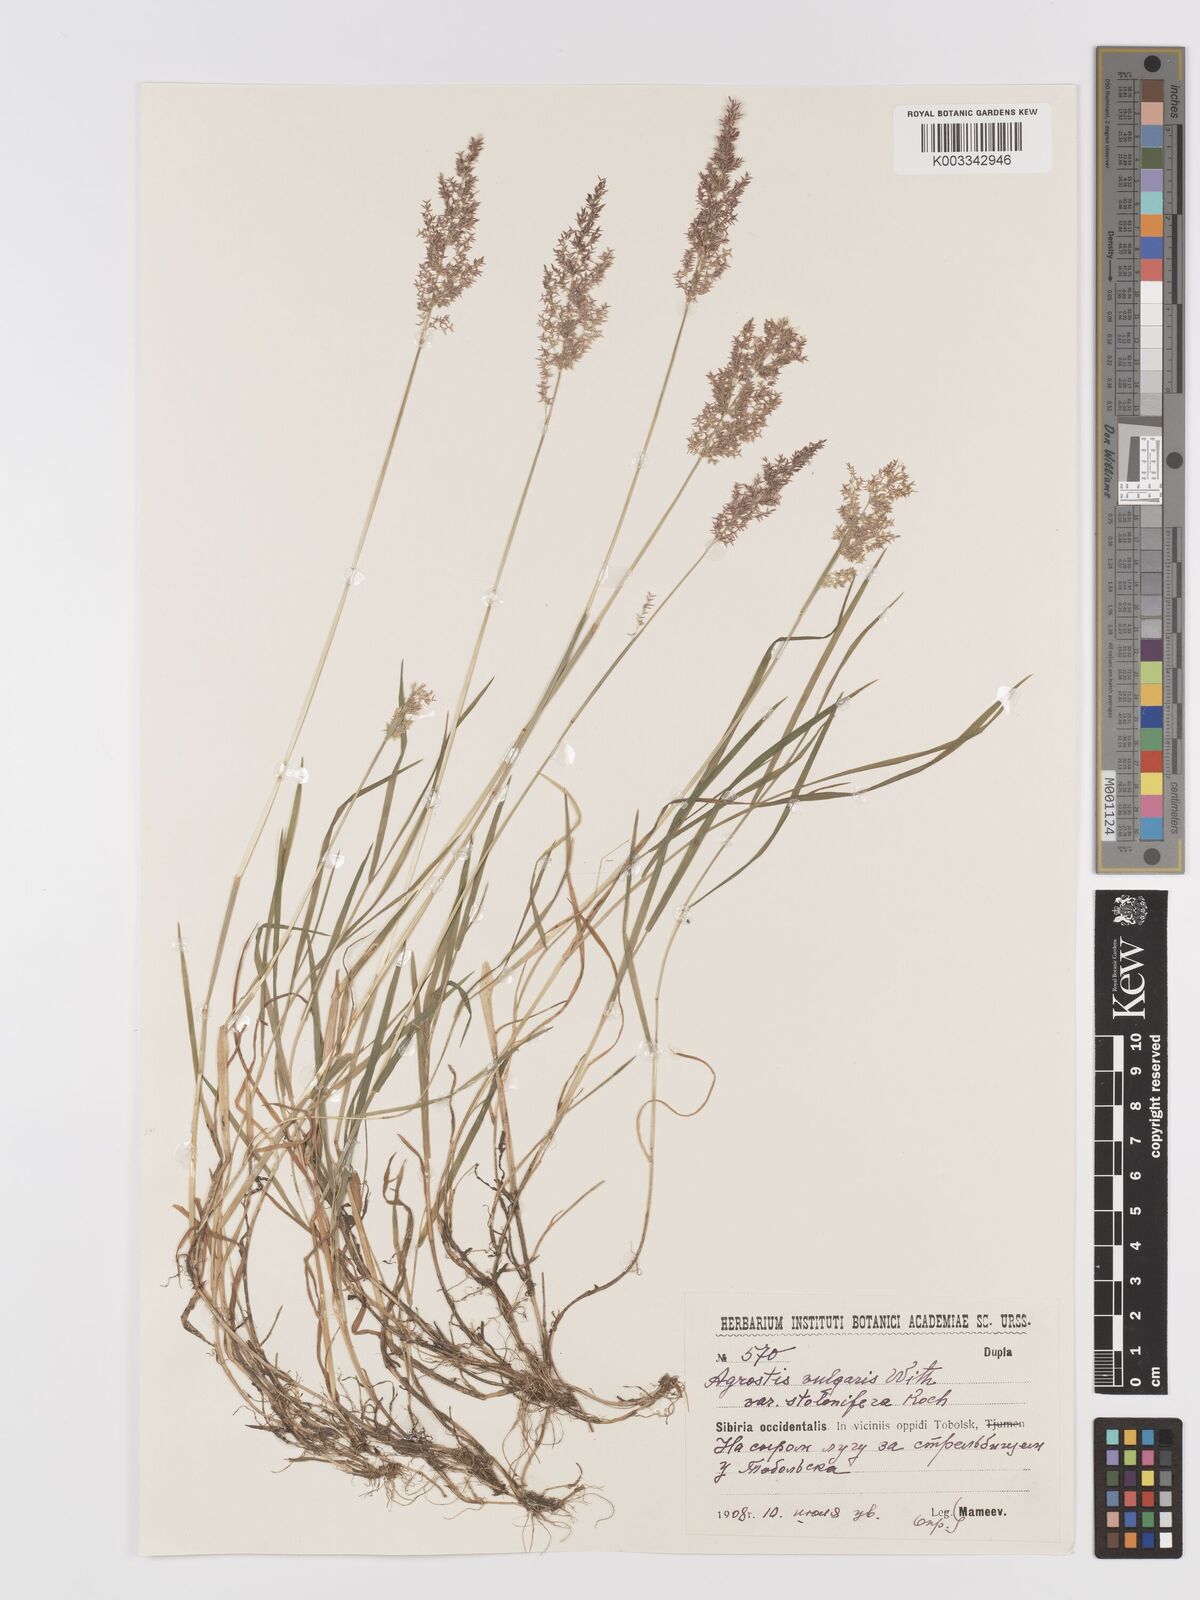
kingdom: Plantae
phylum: Tracheophyta
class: Liliopsida
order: Poales
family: Poaceae
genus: Agrostis
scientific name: Agrostis capillaris
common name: Colonial bentgrass
